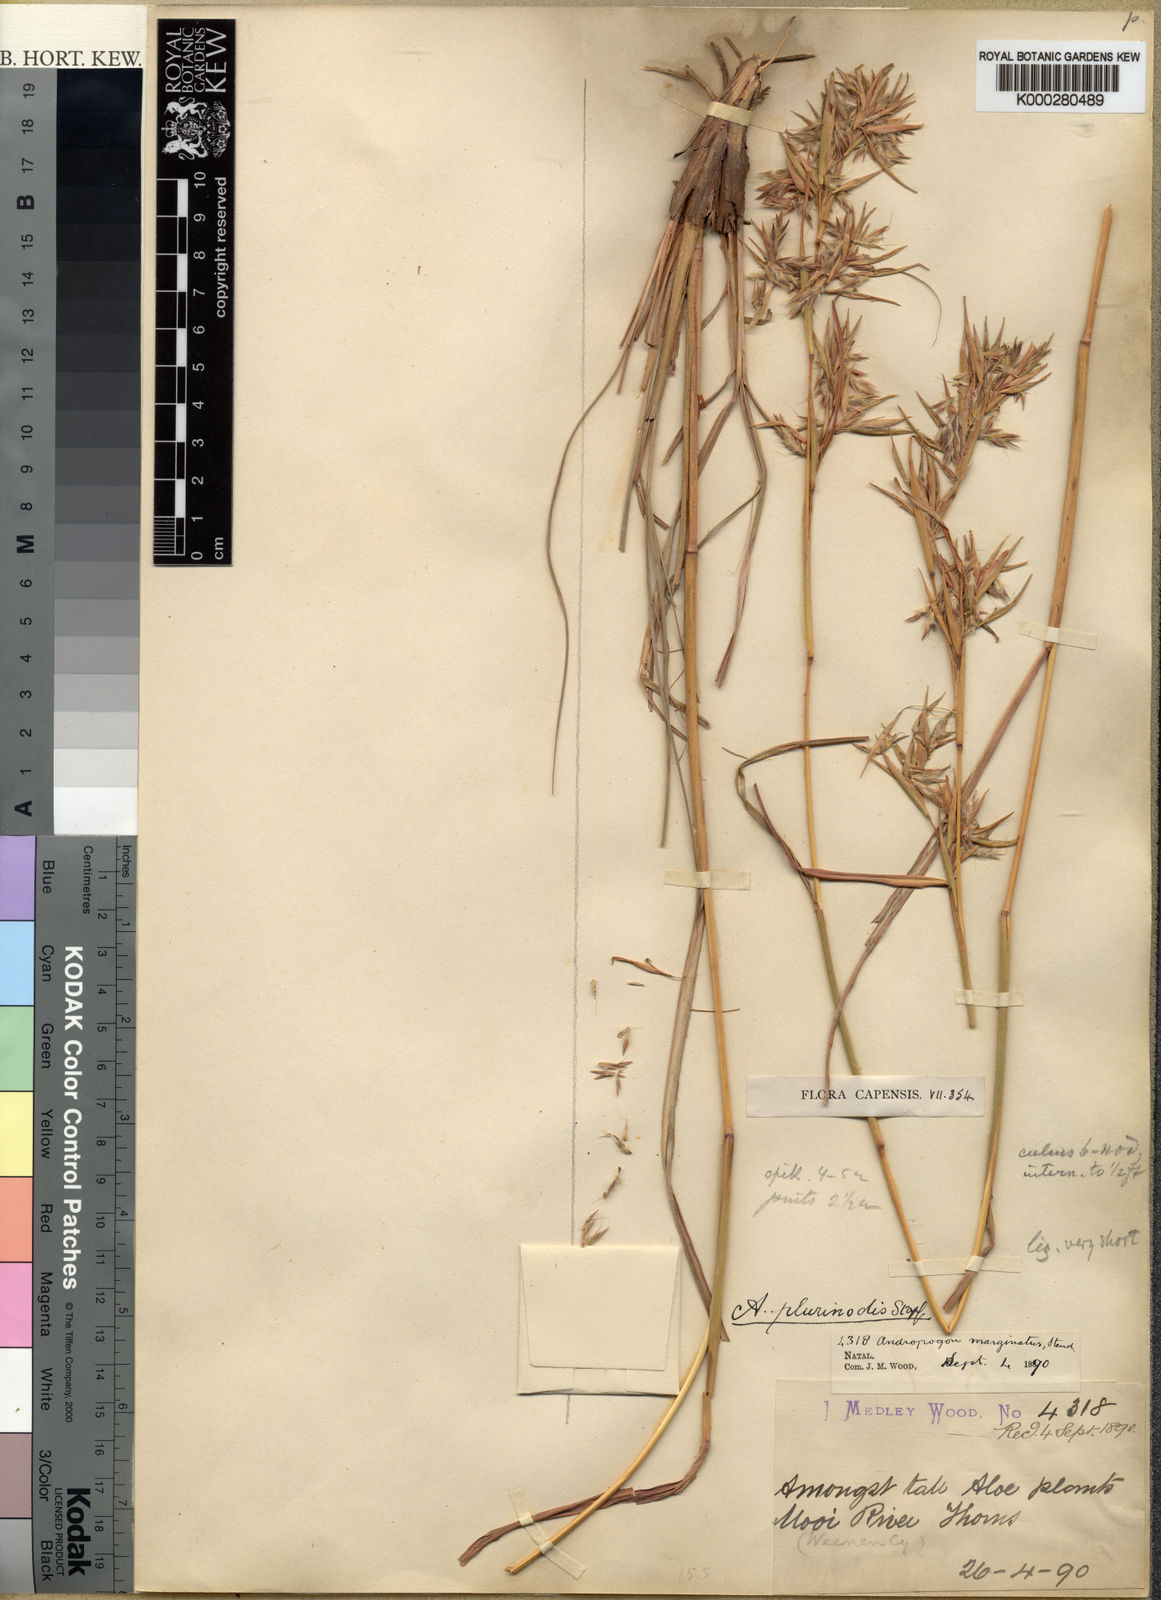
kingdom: Plantae
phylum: Tracheophyta
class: Liliopsida
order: Poales
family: Poaceae
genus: Cymbopogon
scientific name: Cymbopogon pospischilii
